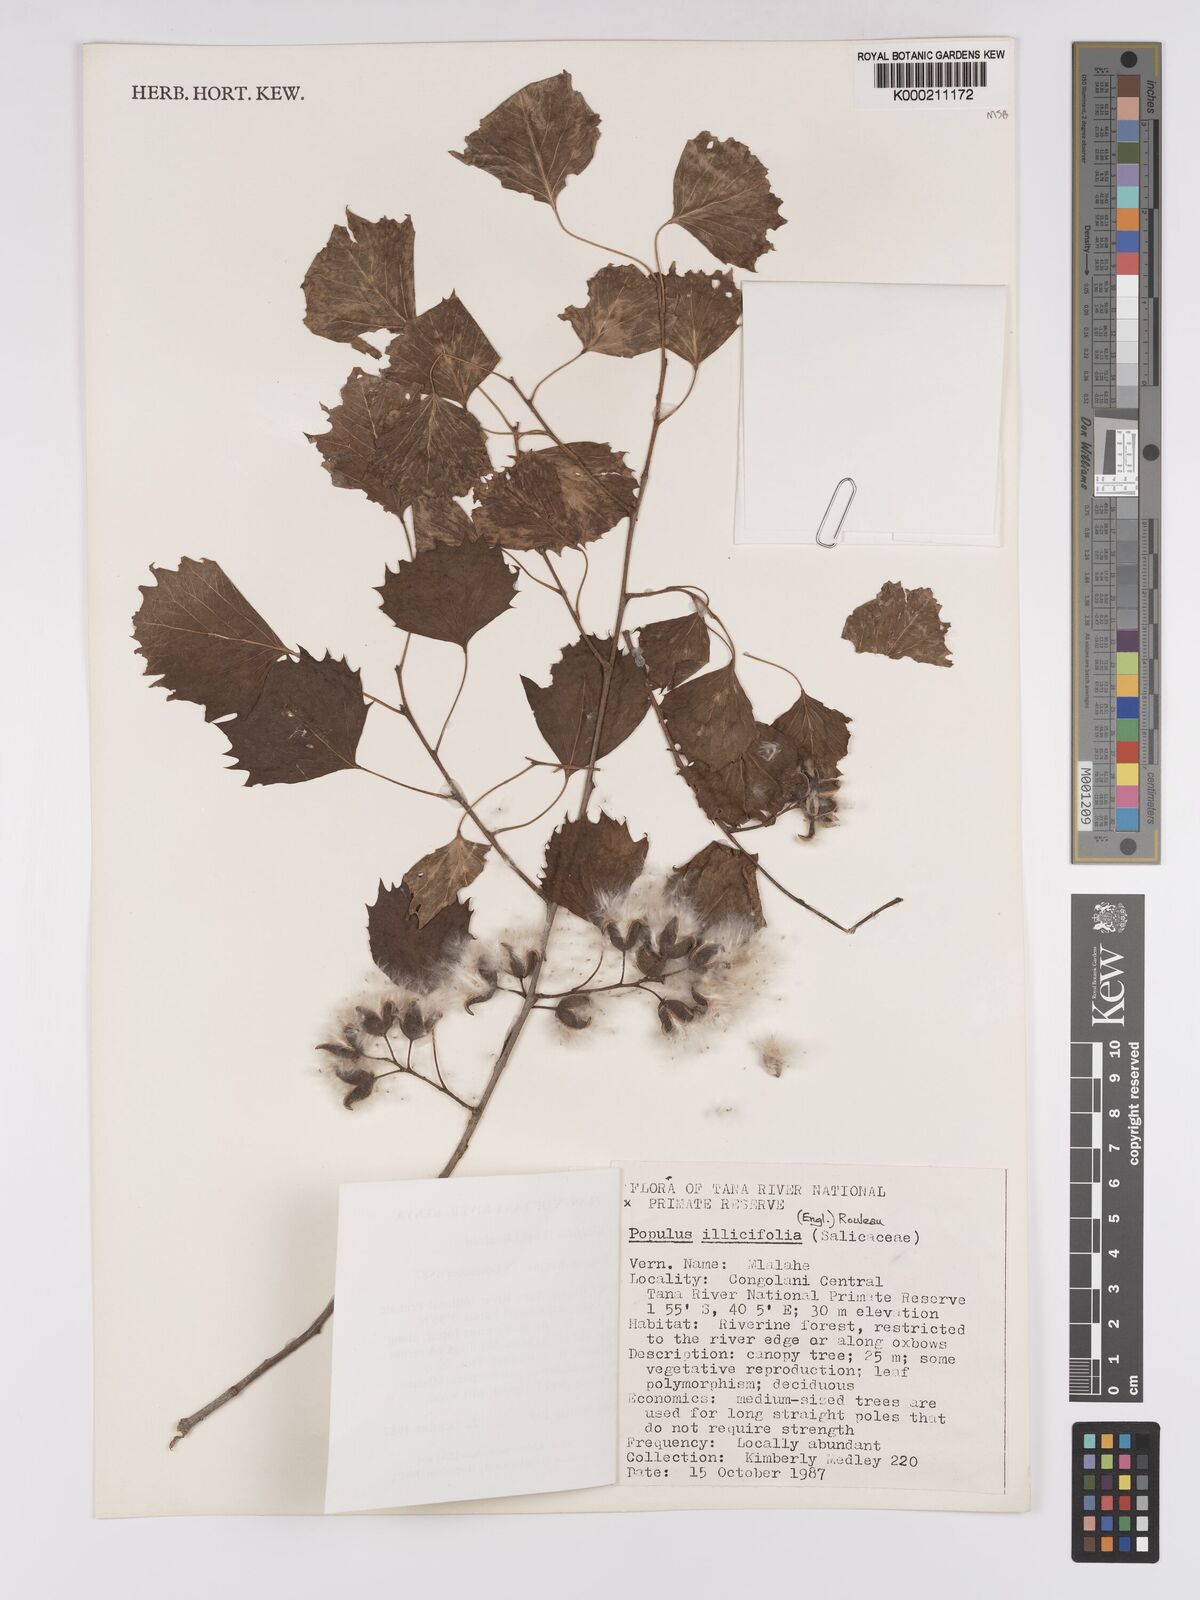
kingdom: Plantae
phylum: Tracheophyta
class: Magnoliopsida
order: Malpighiales
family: Salicaceae
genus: Populus
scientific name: Populus ilicifolia
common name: Tana river poplar
